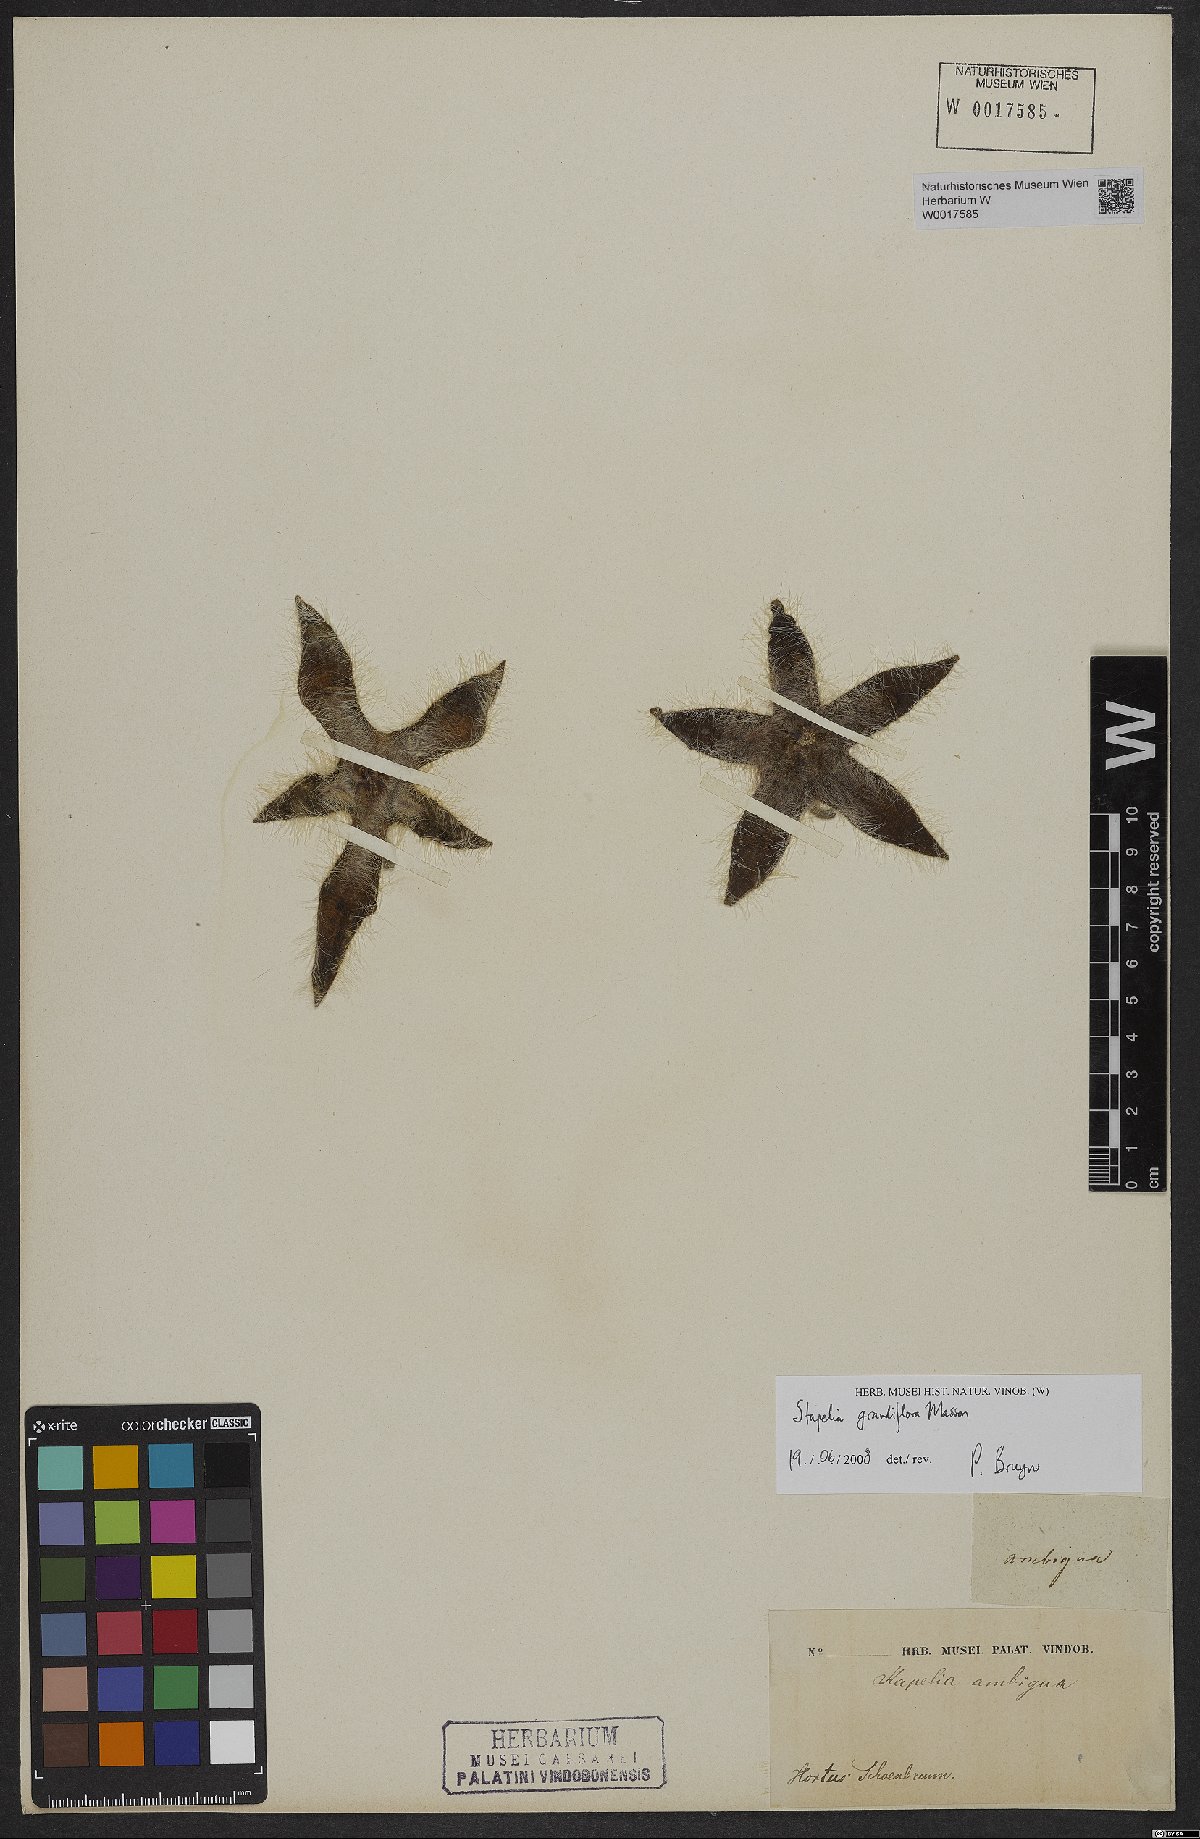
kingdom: Plantae
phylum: Tracheophyta
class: Magnoliopsida
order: Gentianales
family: Apocynaceae
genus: Ceropegia
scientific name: Ceropegia grandiflora
